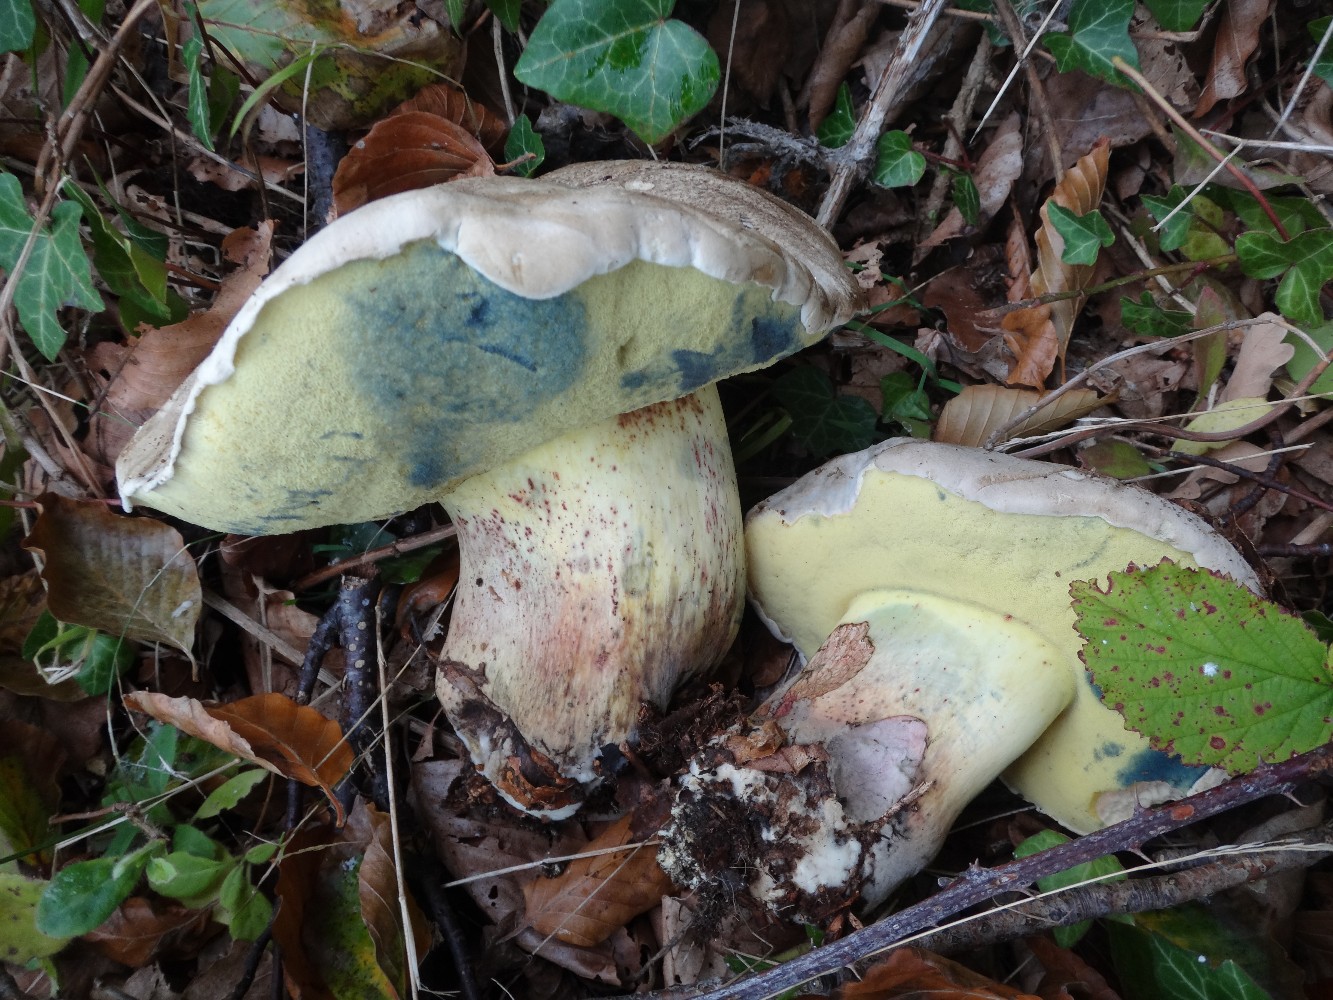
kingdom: Fungi
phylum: Basidiomycota
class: Agaricomycetes
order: Boletales
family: Boletaceae
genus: Caloboletus
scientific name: Caloboletus radicans
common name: rod-rørhat
